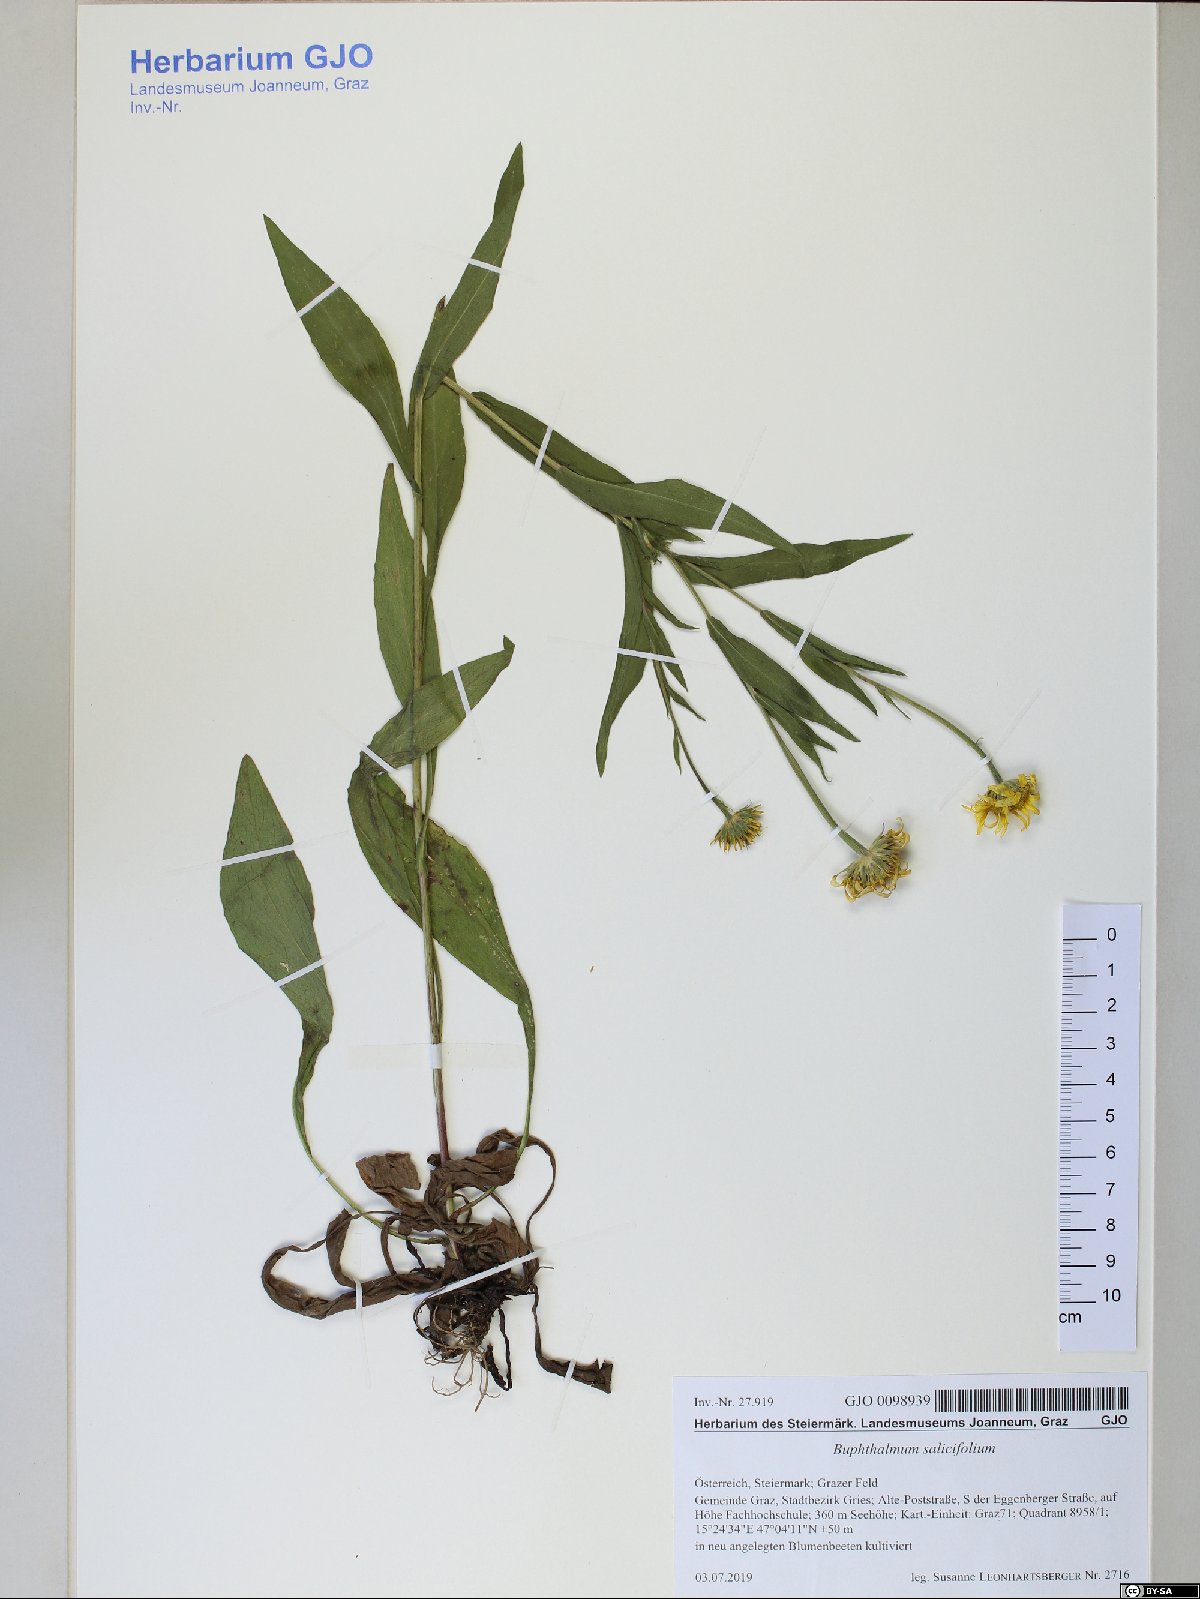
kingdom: Plantae
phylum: Tracheophyta
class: Magnoliopsida
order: Asterales
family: Asteraceae
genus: Buphthalmum
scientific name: Buphthalmum salicifolium
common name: Willow-leaved yellow-oxeye
